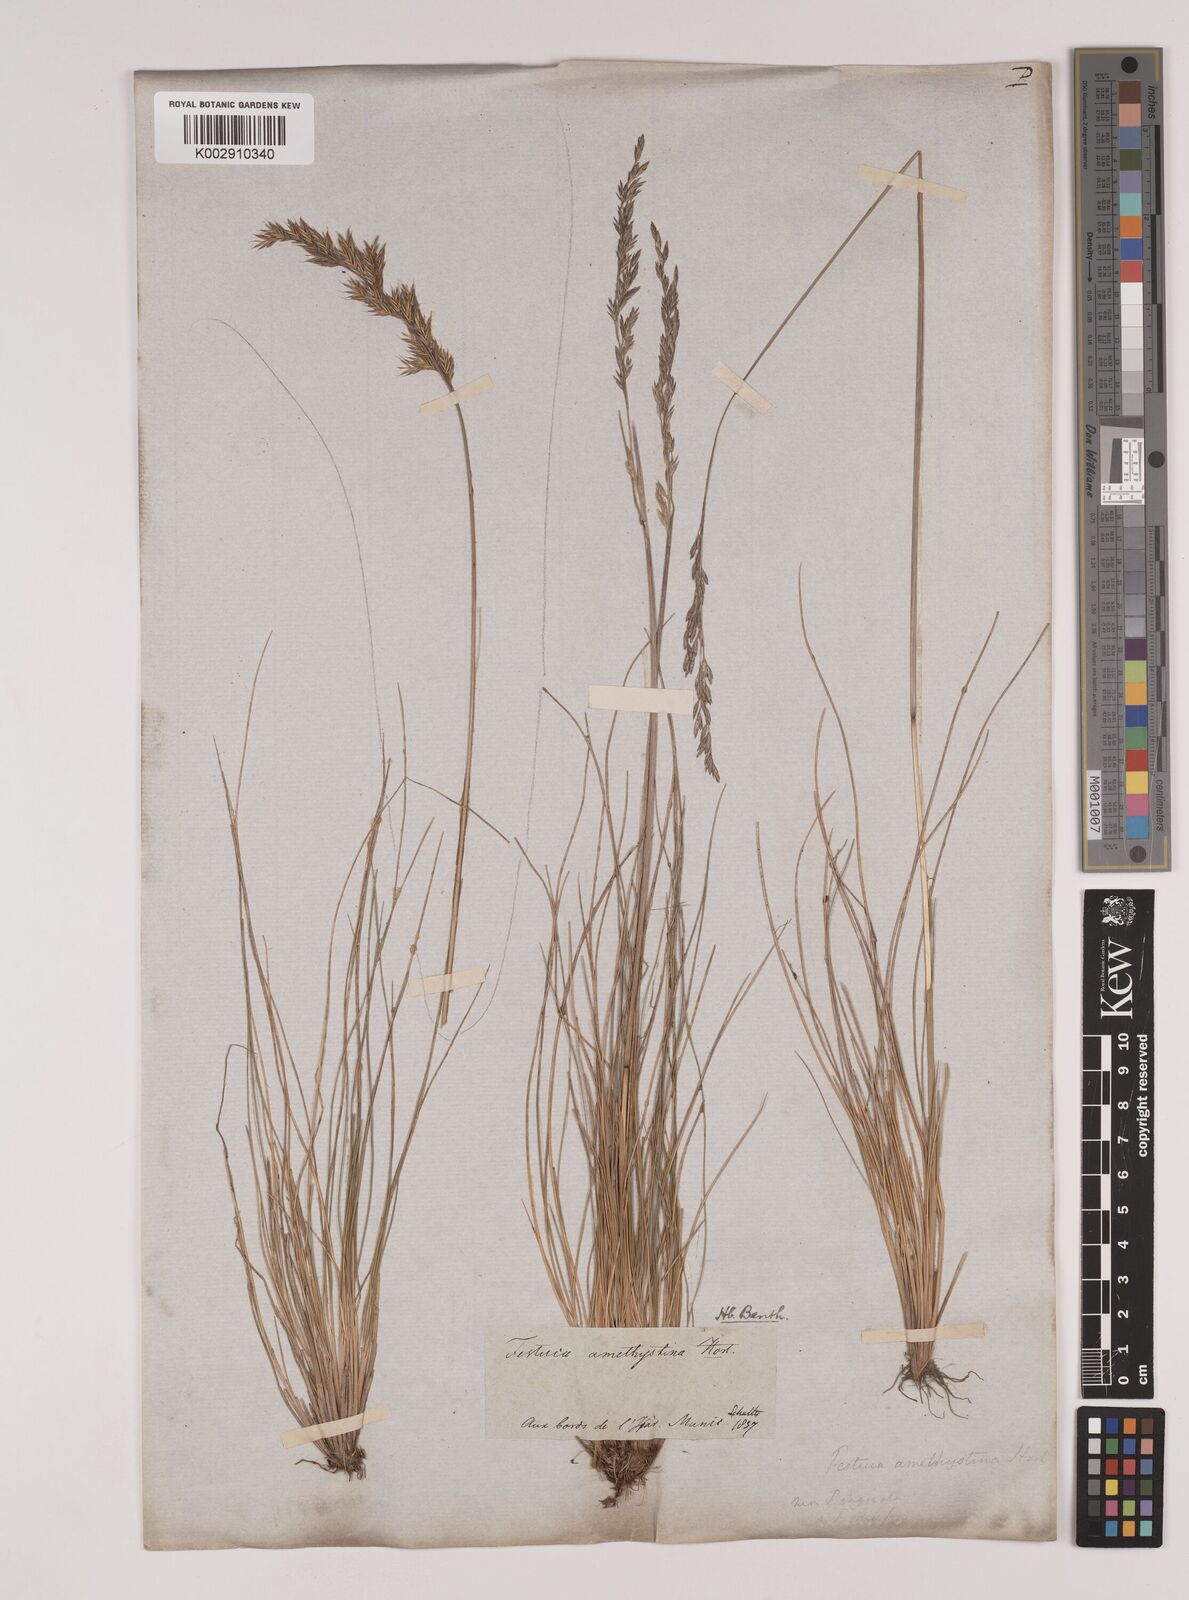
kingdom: Plantae
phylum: Tracheophyta
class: Liliopsida
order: Poales
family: Poaceae
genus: Festuca
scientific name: Festuca amethystina
